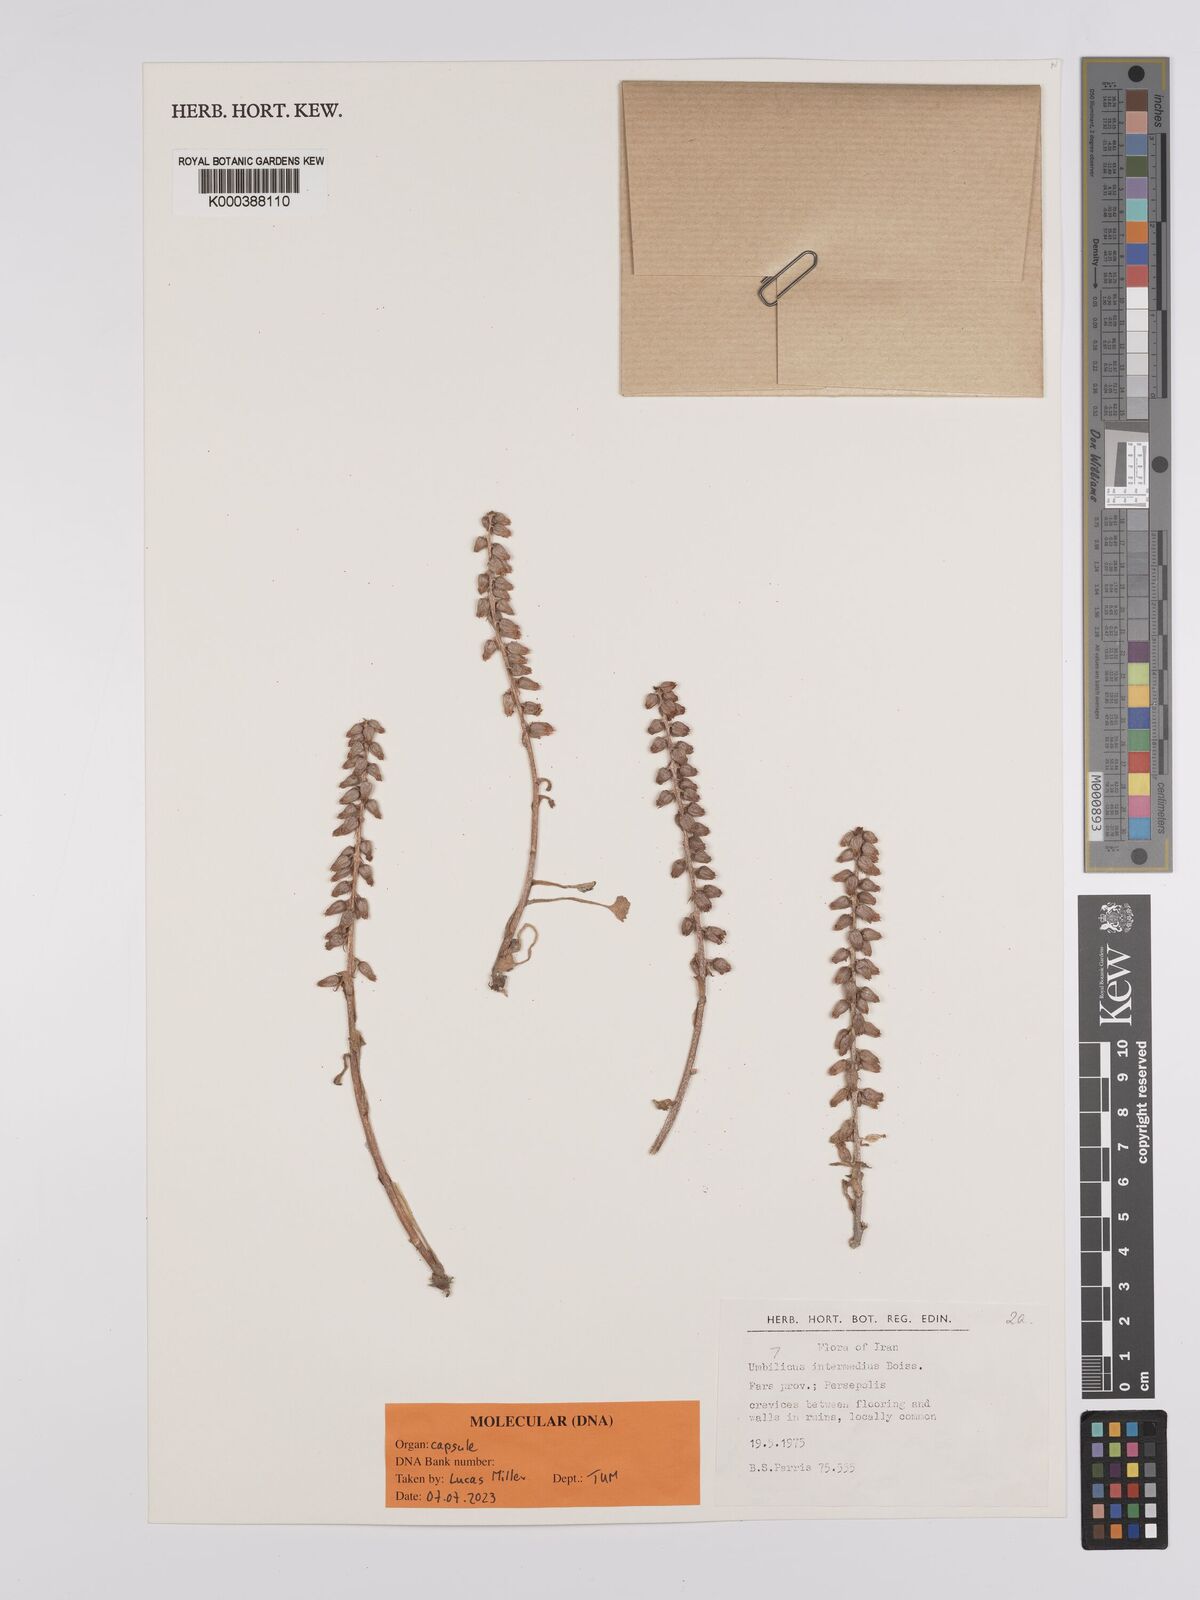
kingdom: Plantae
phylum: Tracheophyta
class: Magnoliopsida
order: Saxifragales
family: Crassulaceae
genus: Umbilicus
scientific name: Umbilicus horizontalis
